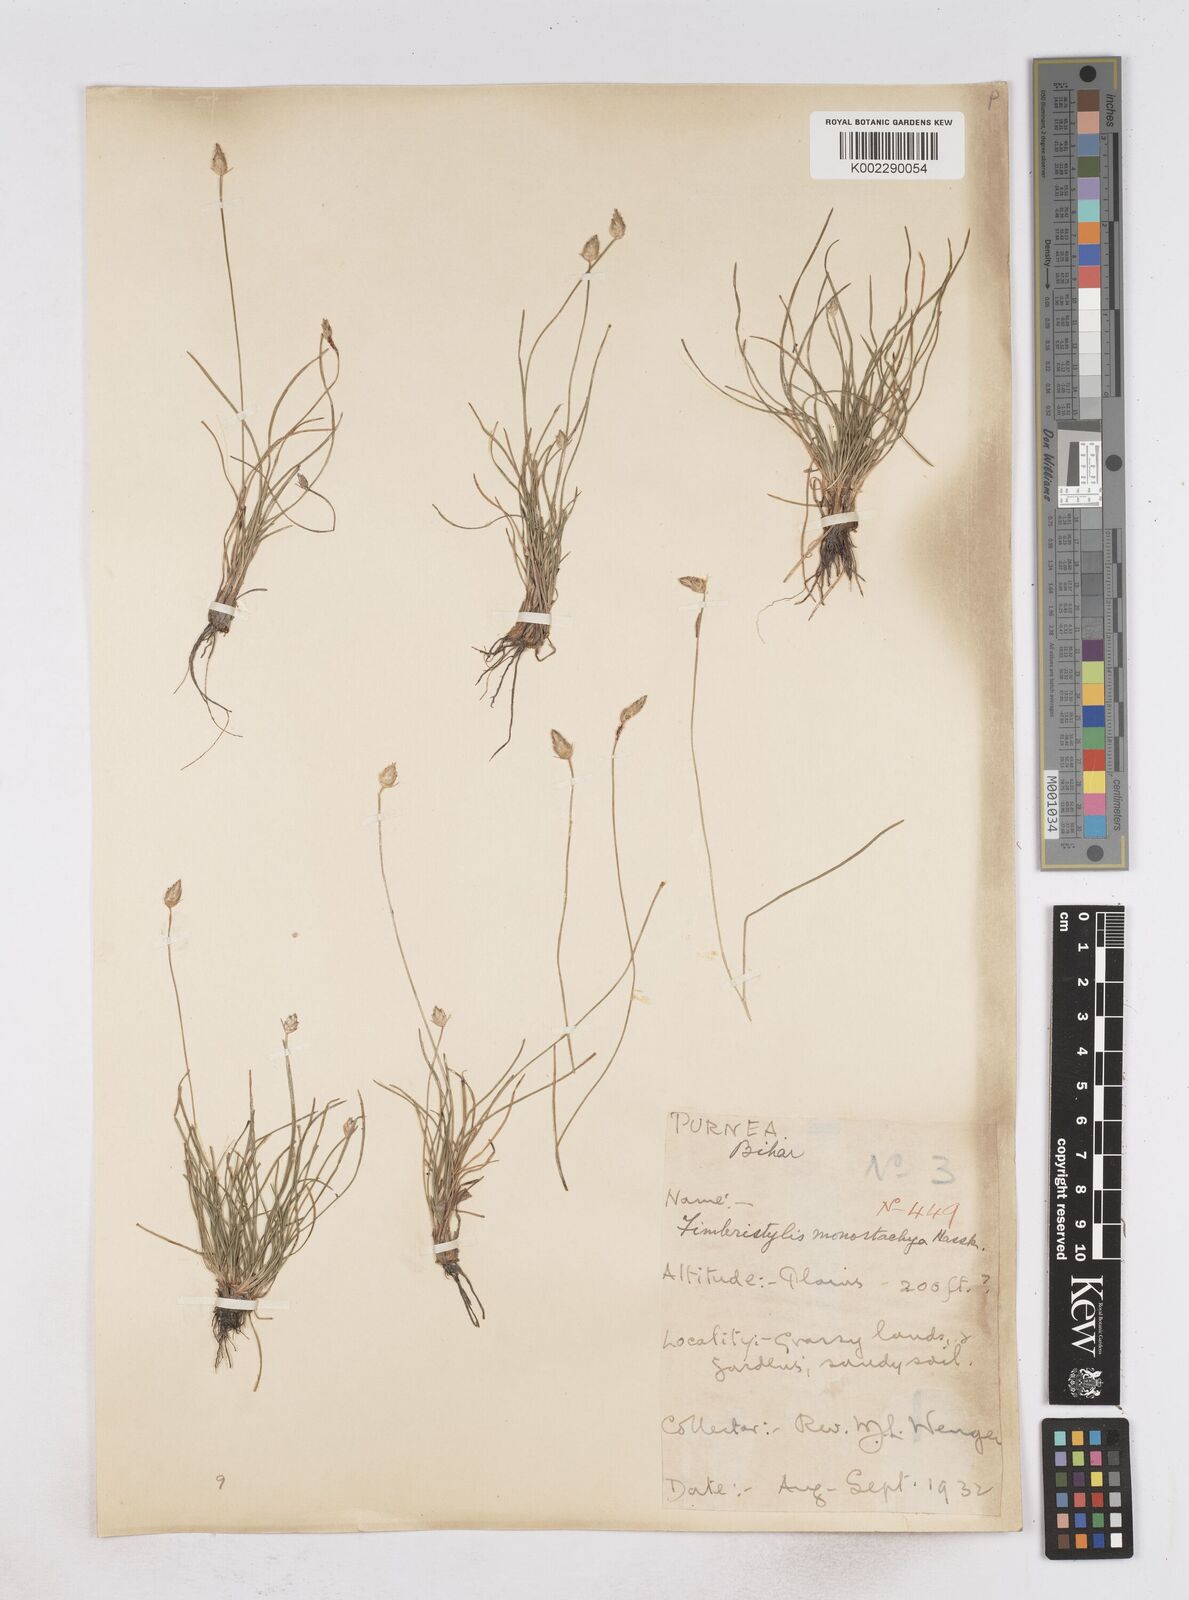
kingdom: Plantae
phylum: Tracheophyta
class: Liliopsida
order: Poales
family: Cyperaceae
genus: Abildgaardia
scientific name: Abildgaardia ovata
